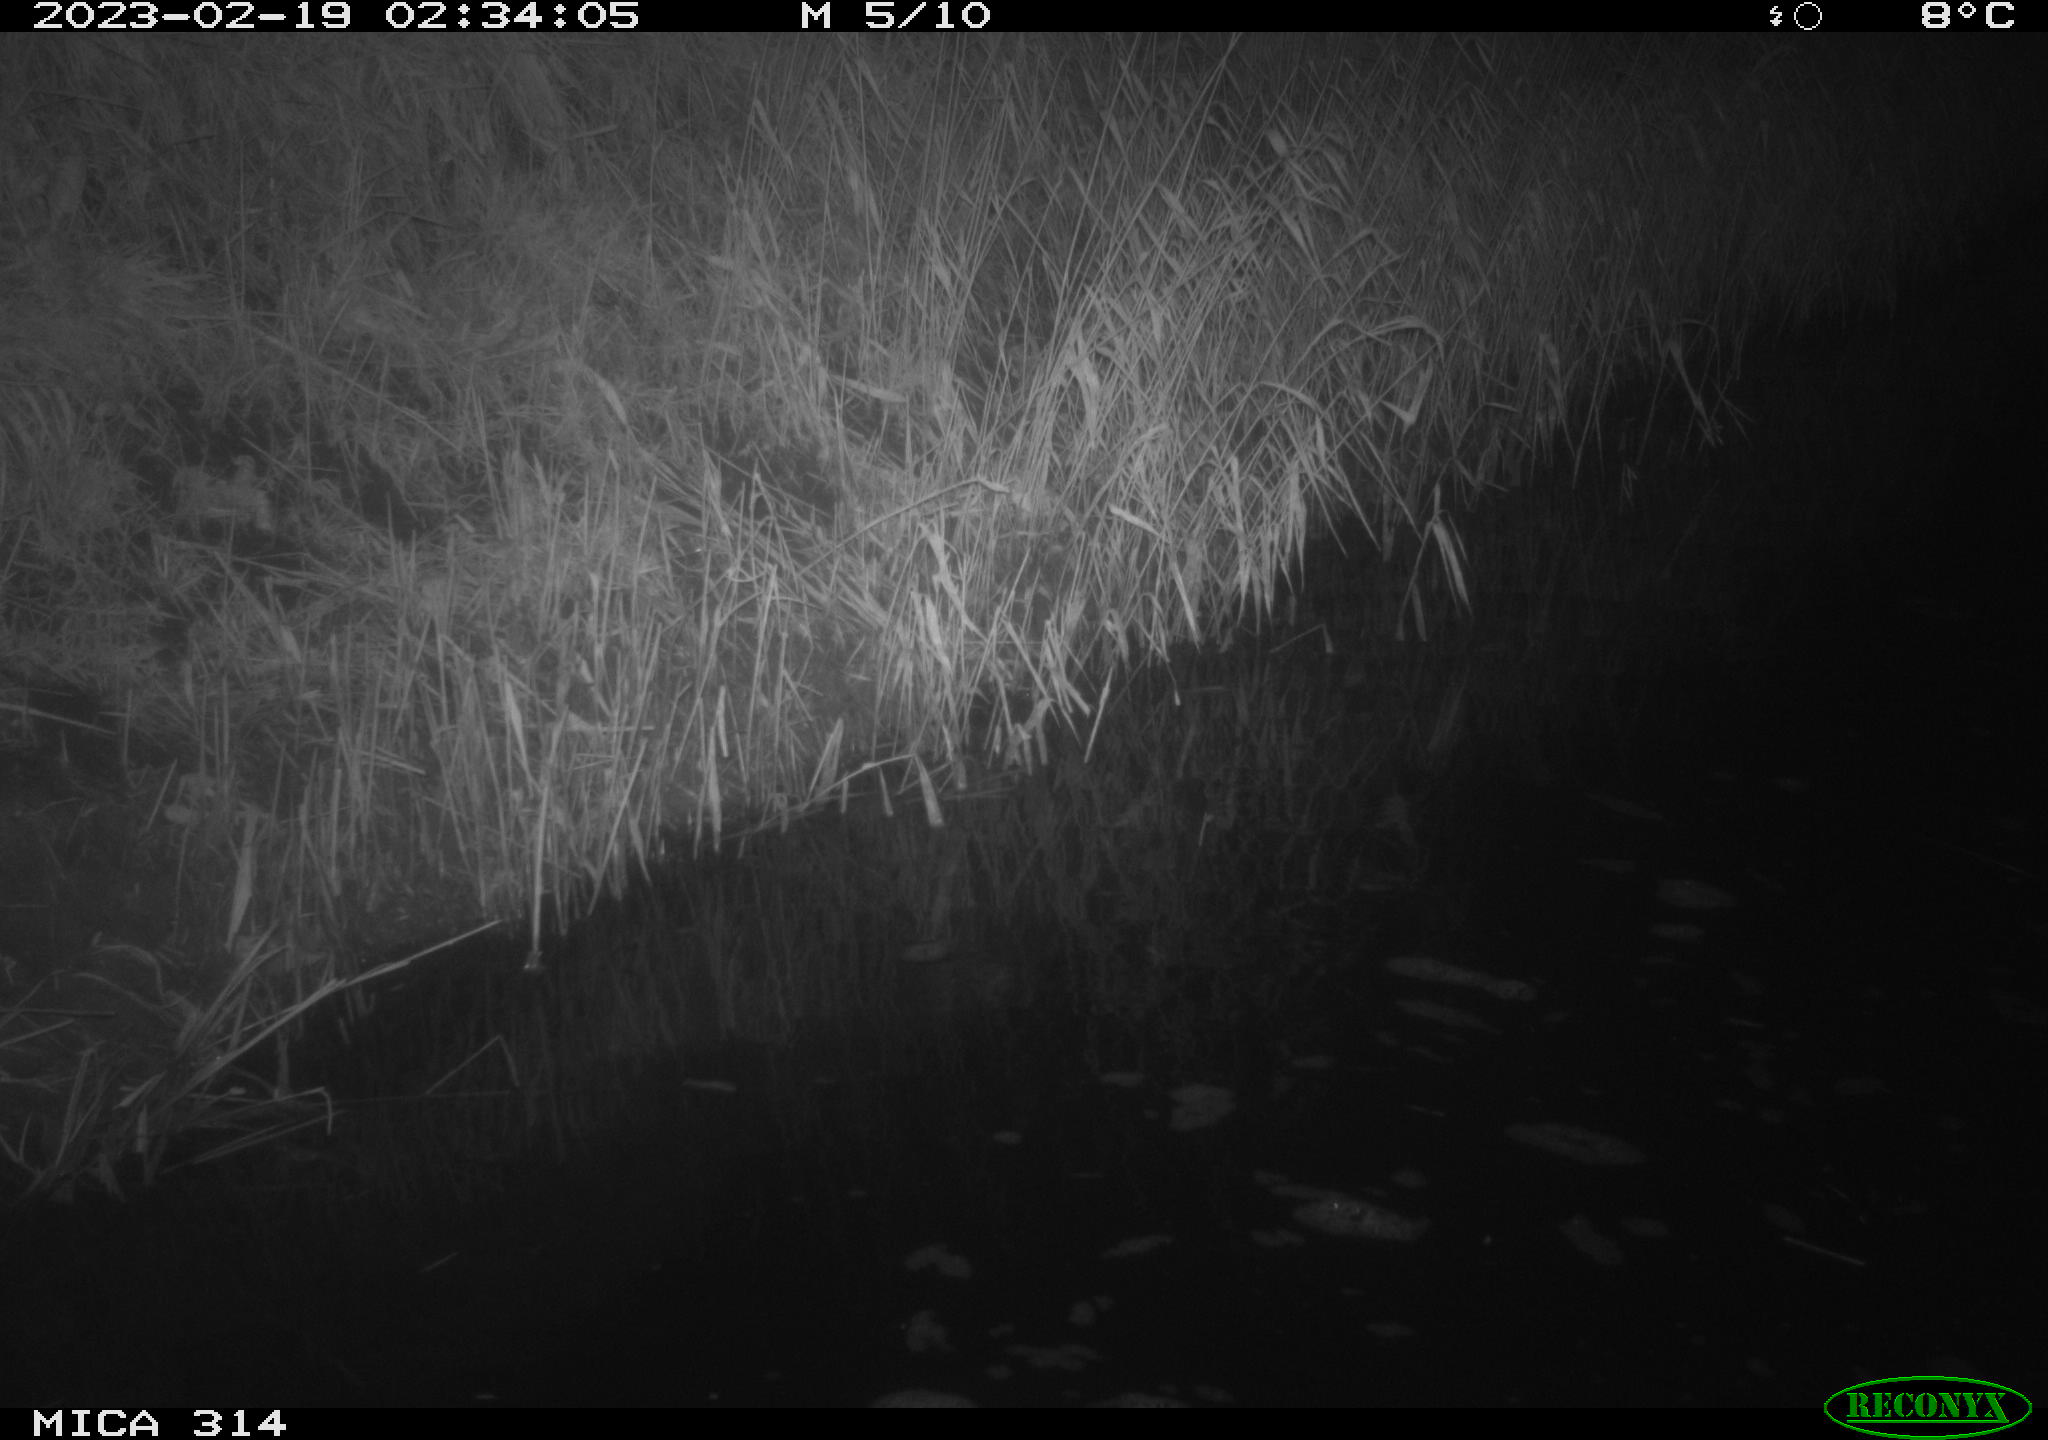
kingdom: Animalia
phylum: Chordata
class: Mammalia
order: Rodentia
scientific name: Rodentia
